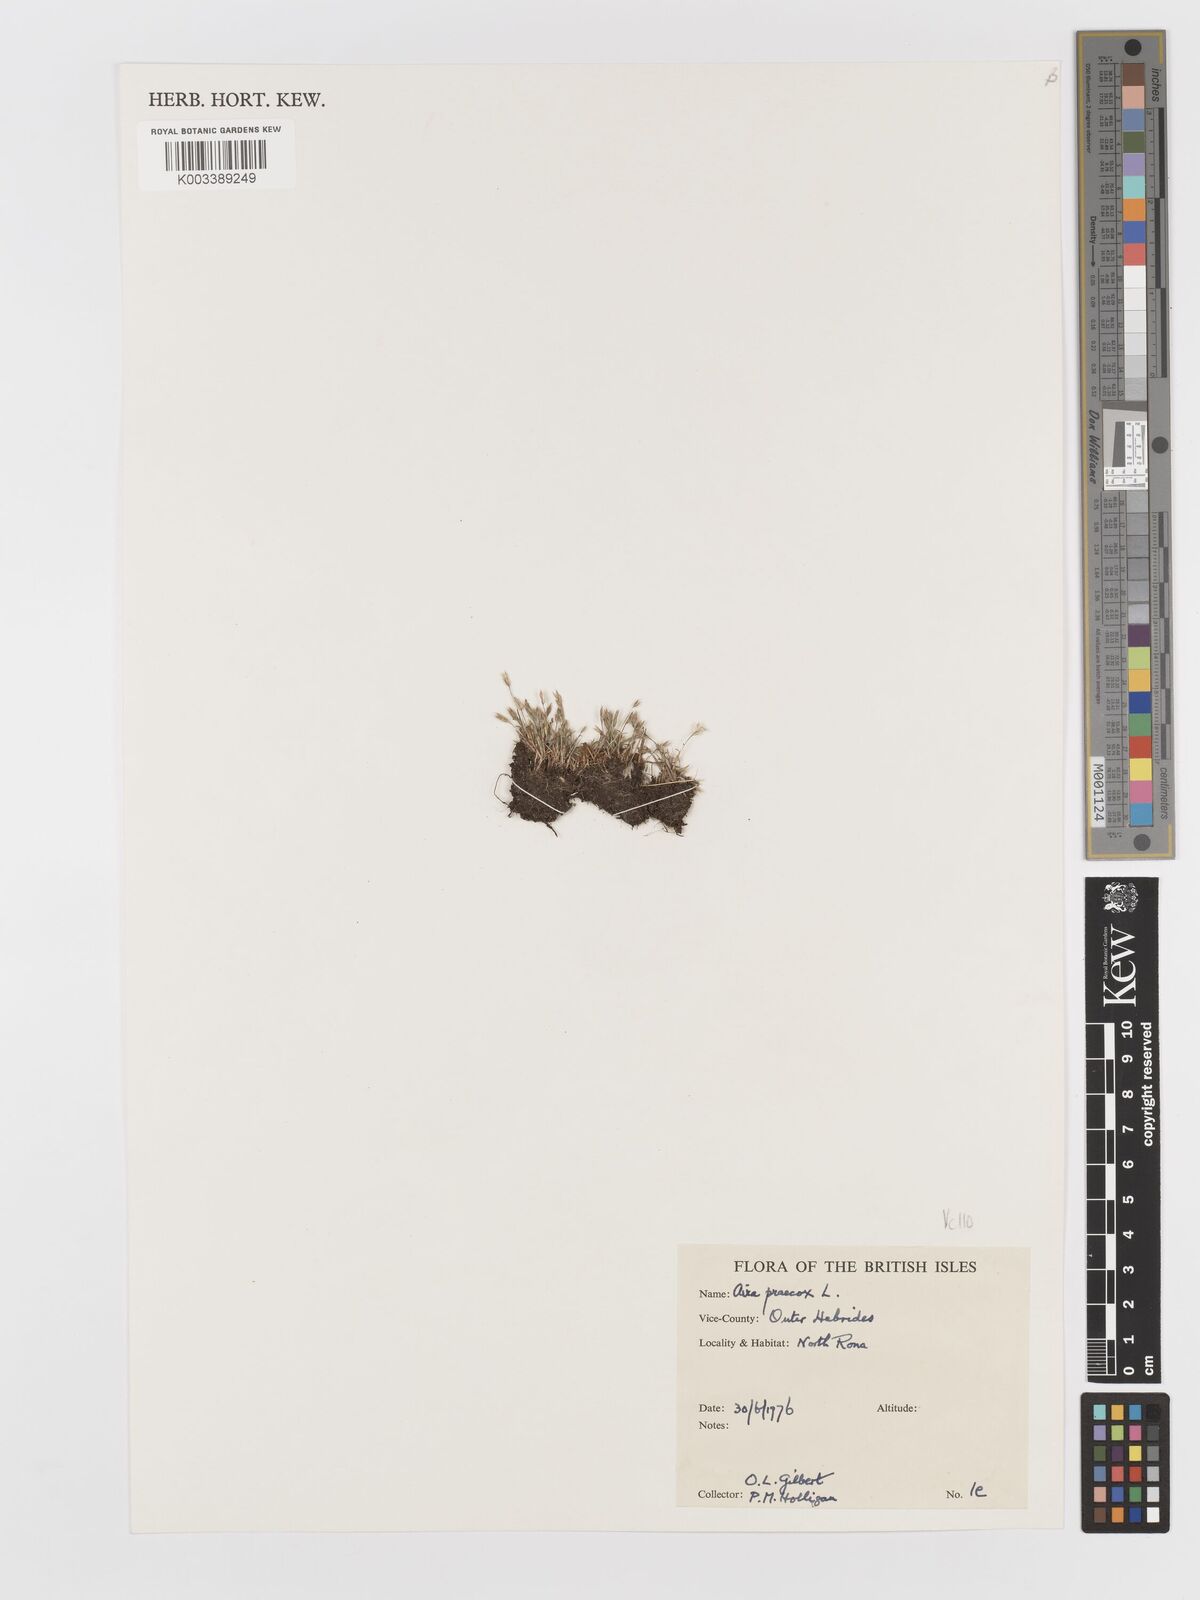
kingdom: Plantae
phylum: Tracheophyta
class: Liliopsida
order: Poales
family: Poaceae
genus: Aira
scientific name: Aira praecox
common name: Early hair-grass
